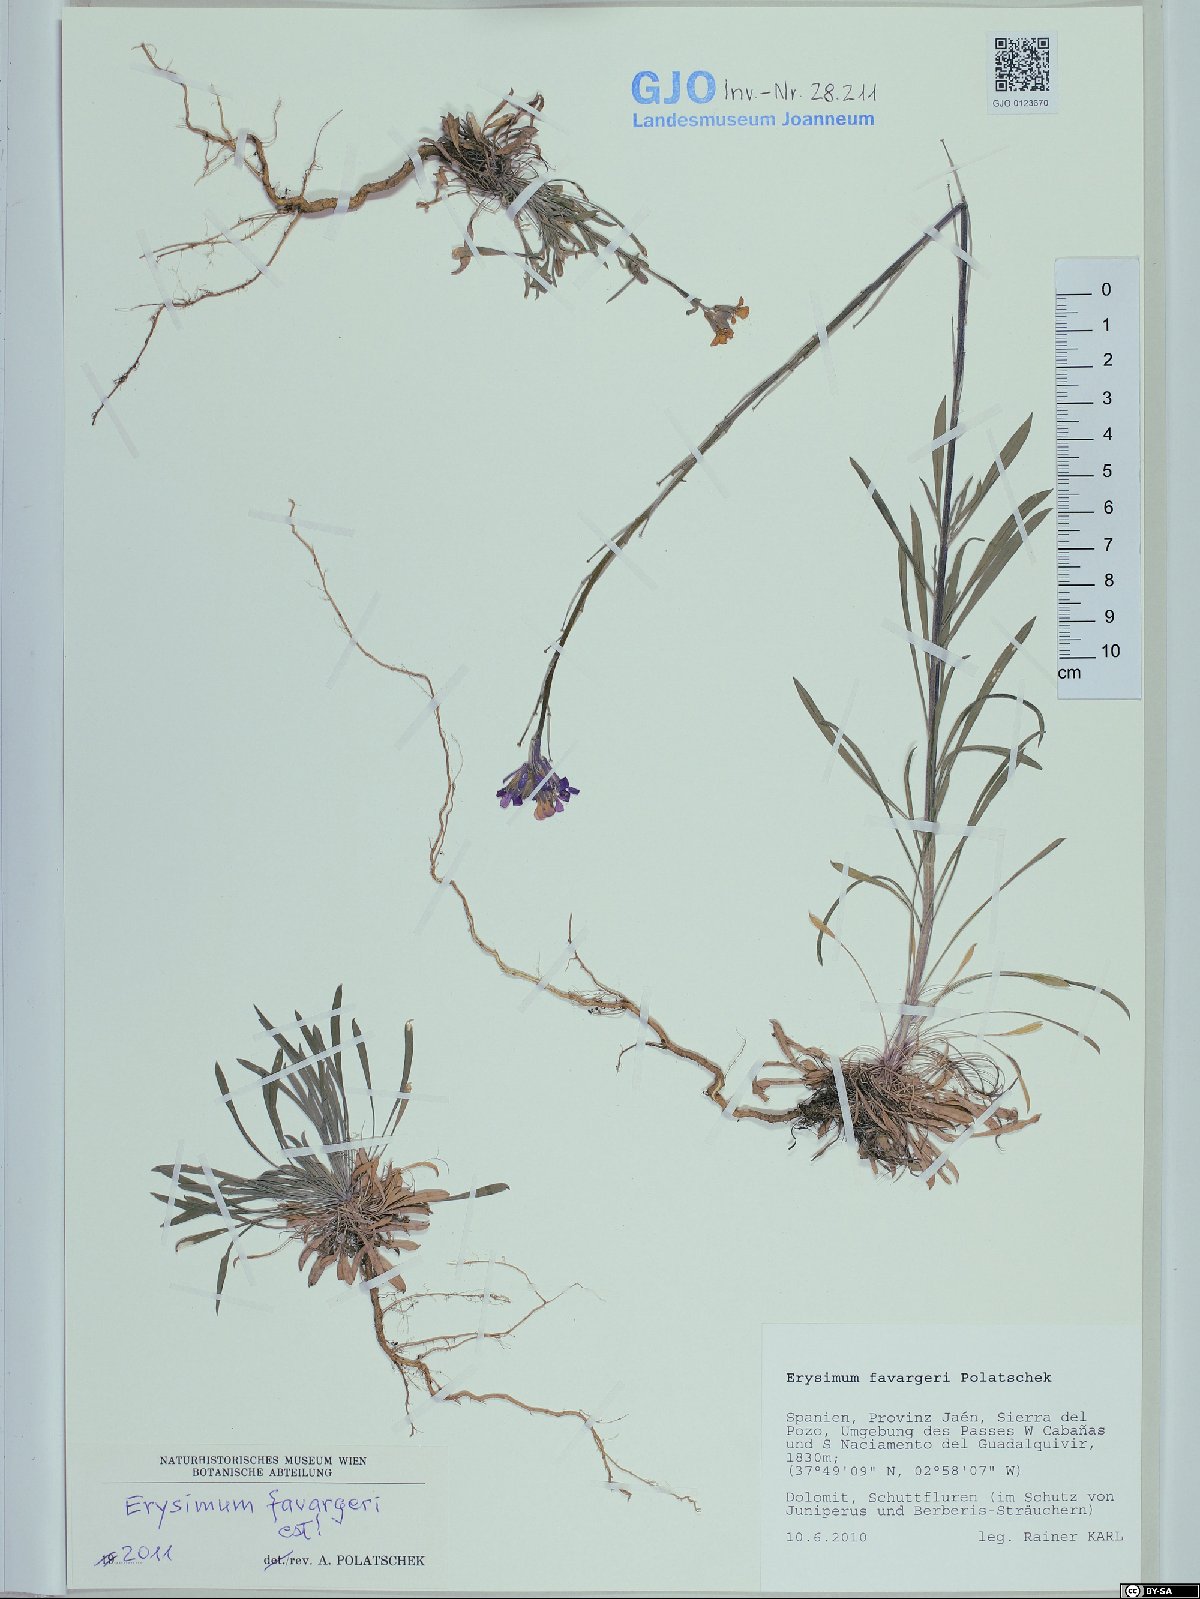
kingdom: Plantae
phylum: Tracheophyta
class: Magnoliopsida
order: Brassicales
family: Brassicaceae
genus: Erysimum
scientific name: Erysimum cazorlense
